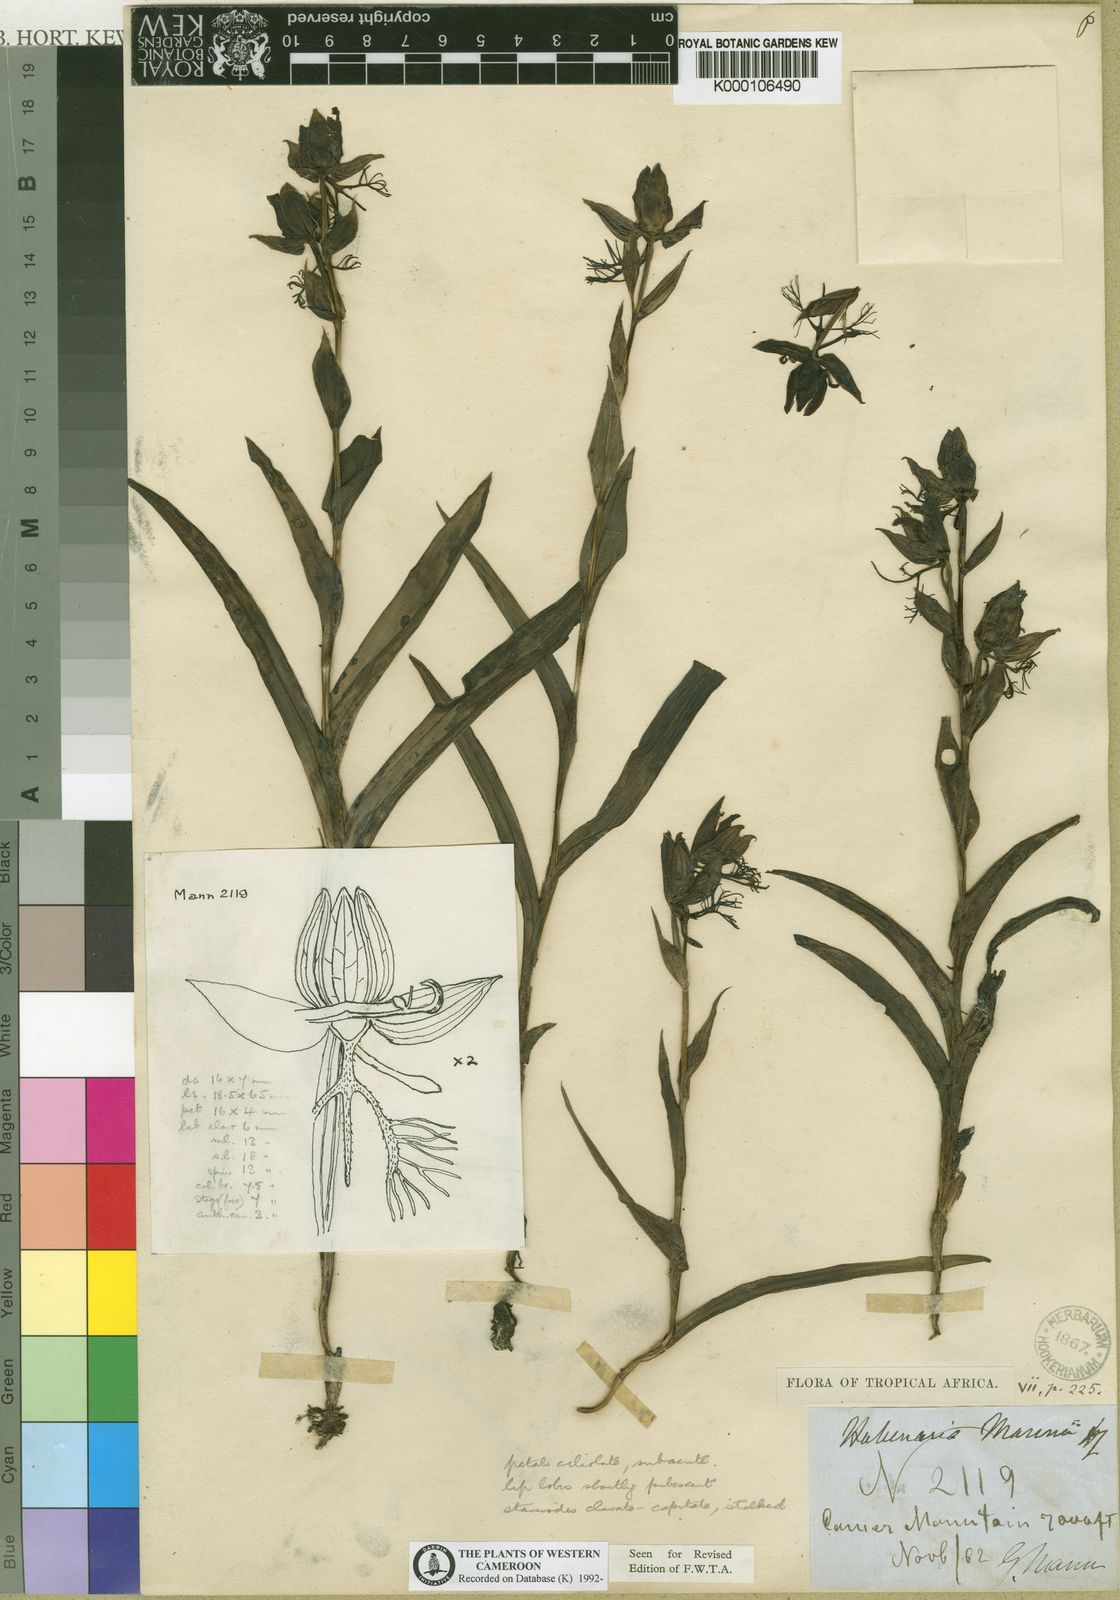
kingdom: Plantae
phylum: Tracheophyta
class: Liliopsida
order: Asparagales
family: Orchidaceae
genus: Habenaria
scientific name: Habenaria mannii
